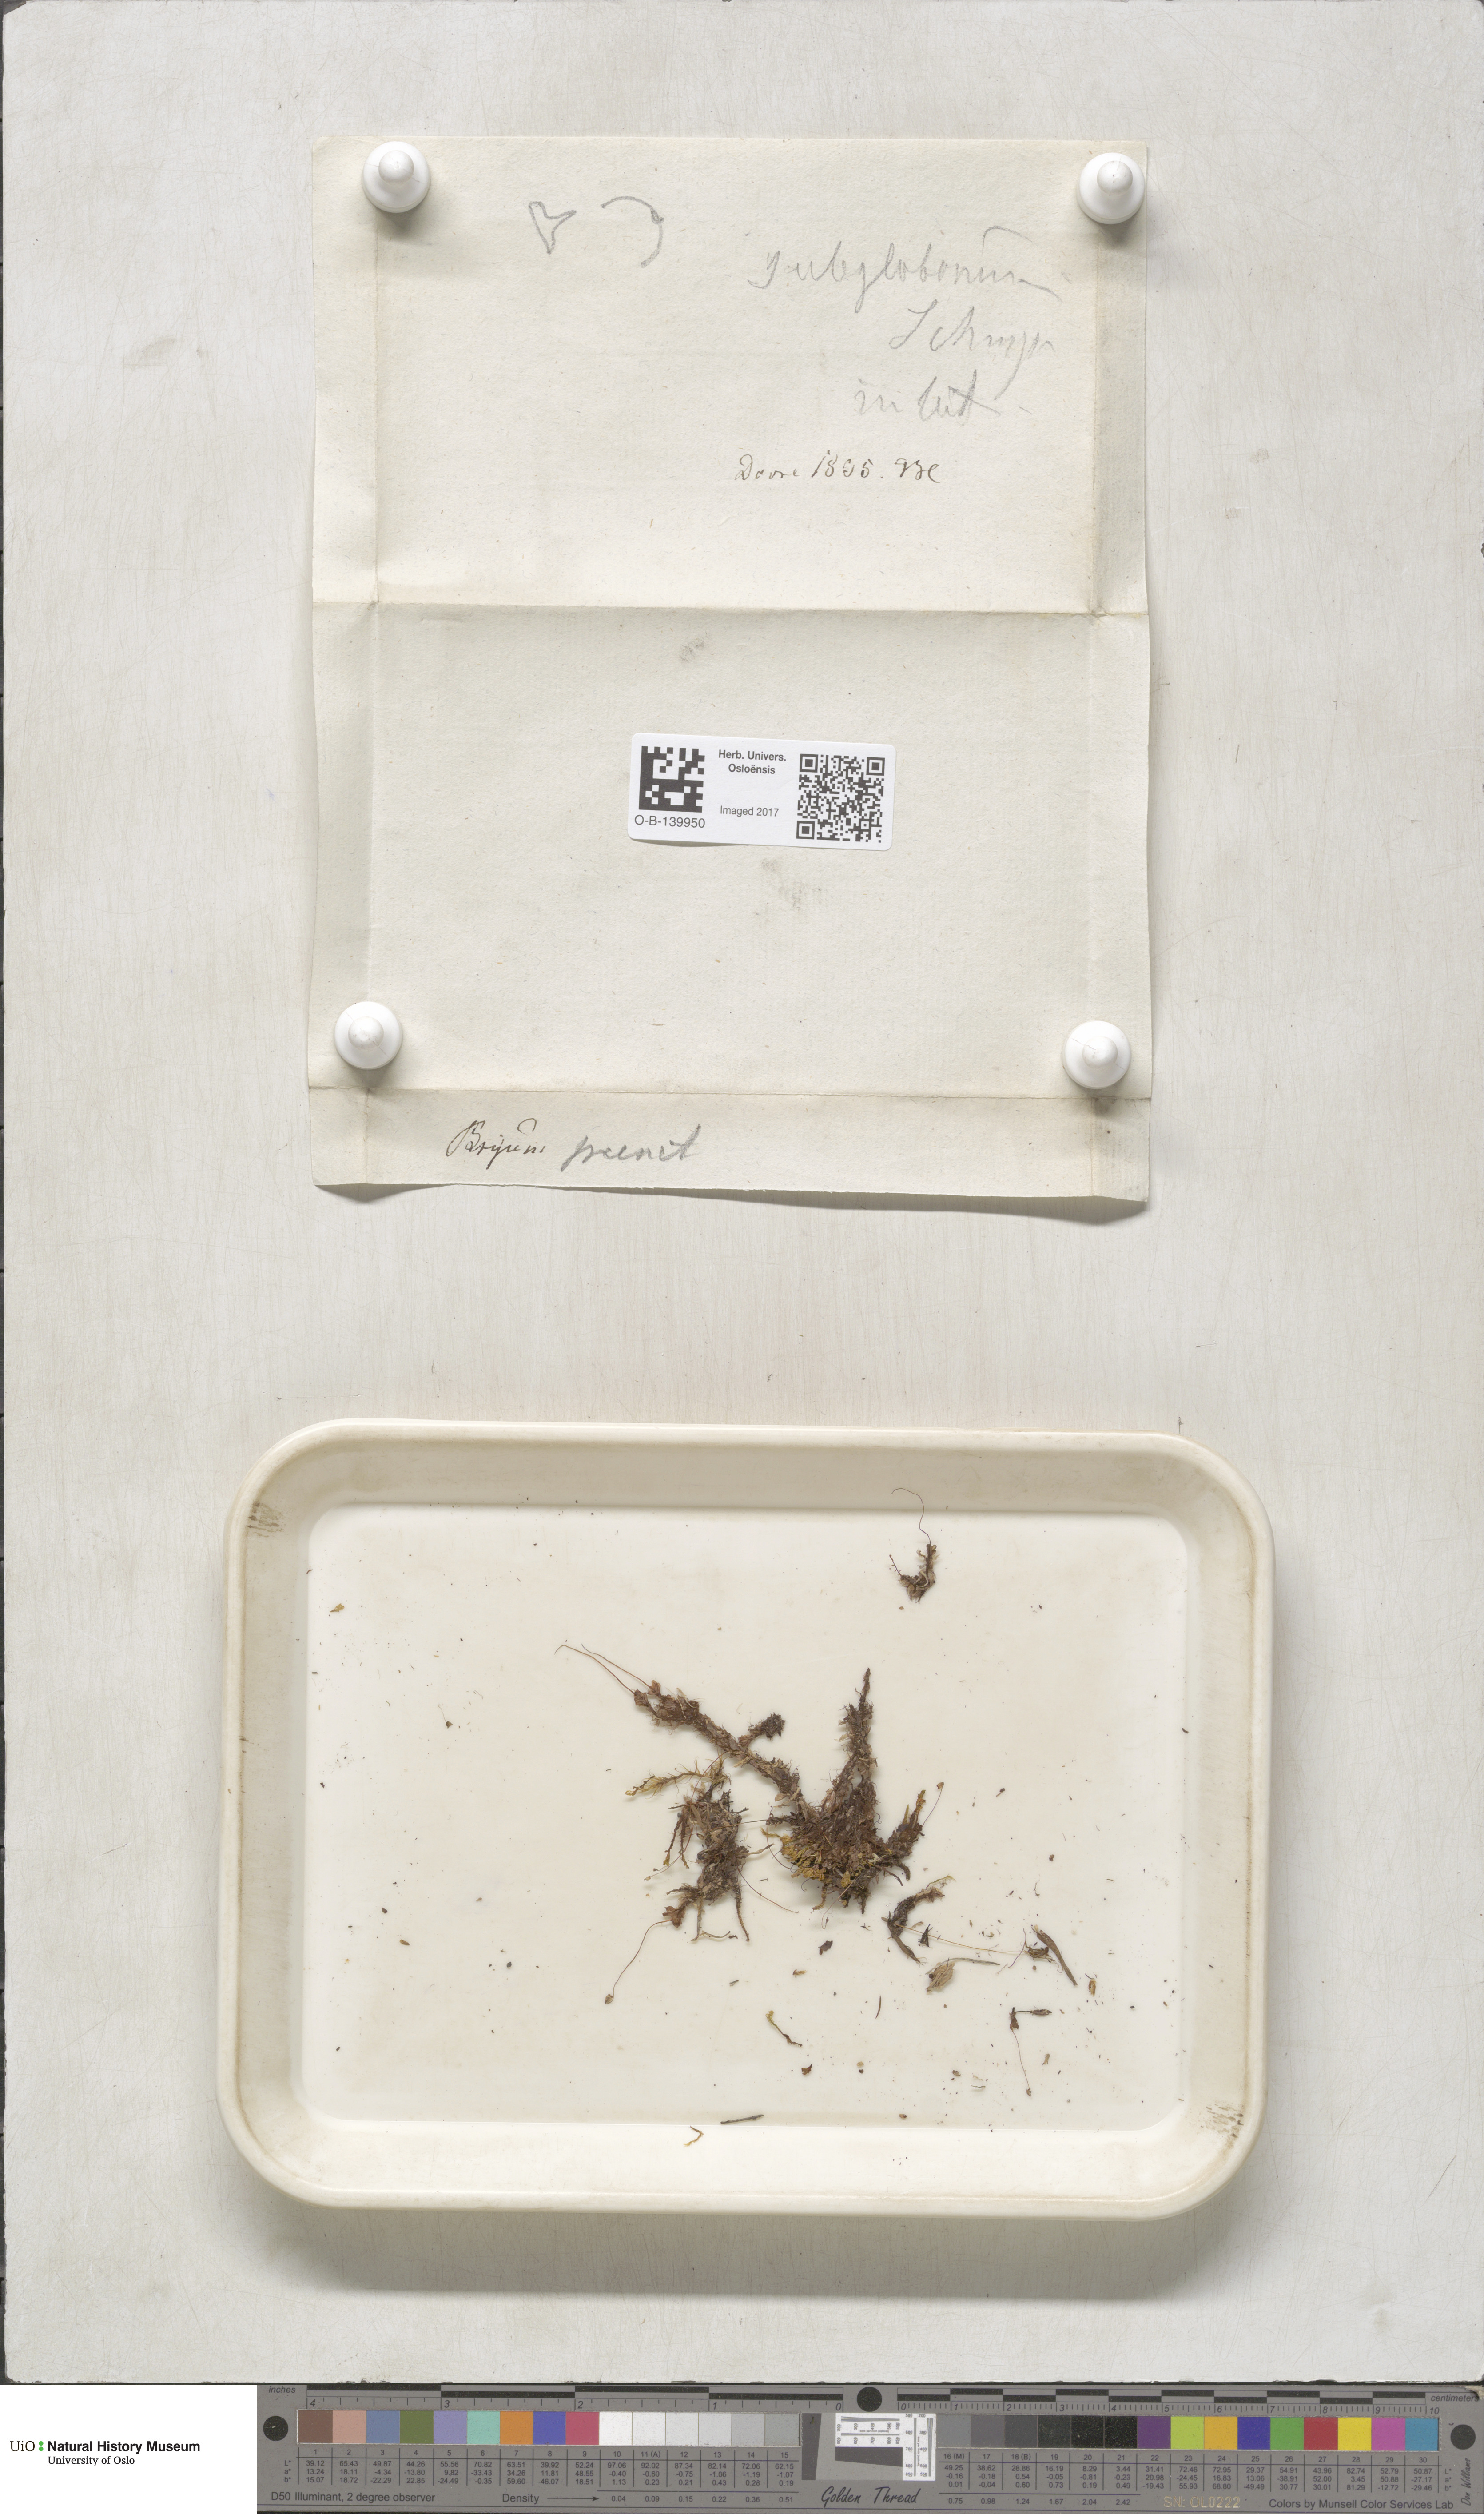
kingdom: Plantae
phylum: Bryophyta
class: Bryopsida
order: Bryales
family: Mniaceae
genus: Rhizomnium
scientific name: Rhizomnium pseudopunctatum
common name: Felted leafy moss
